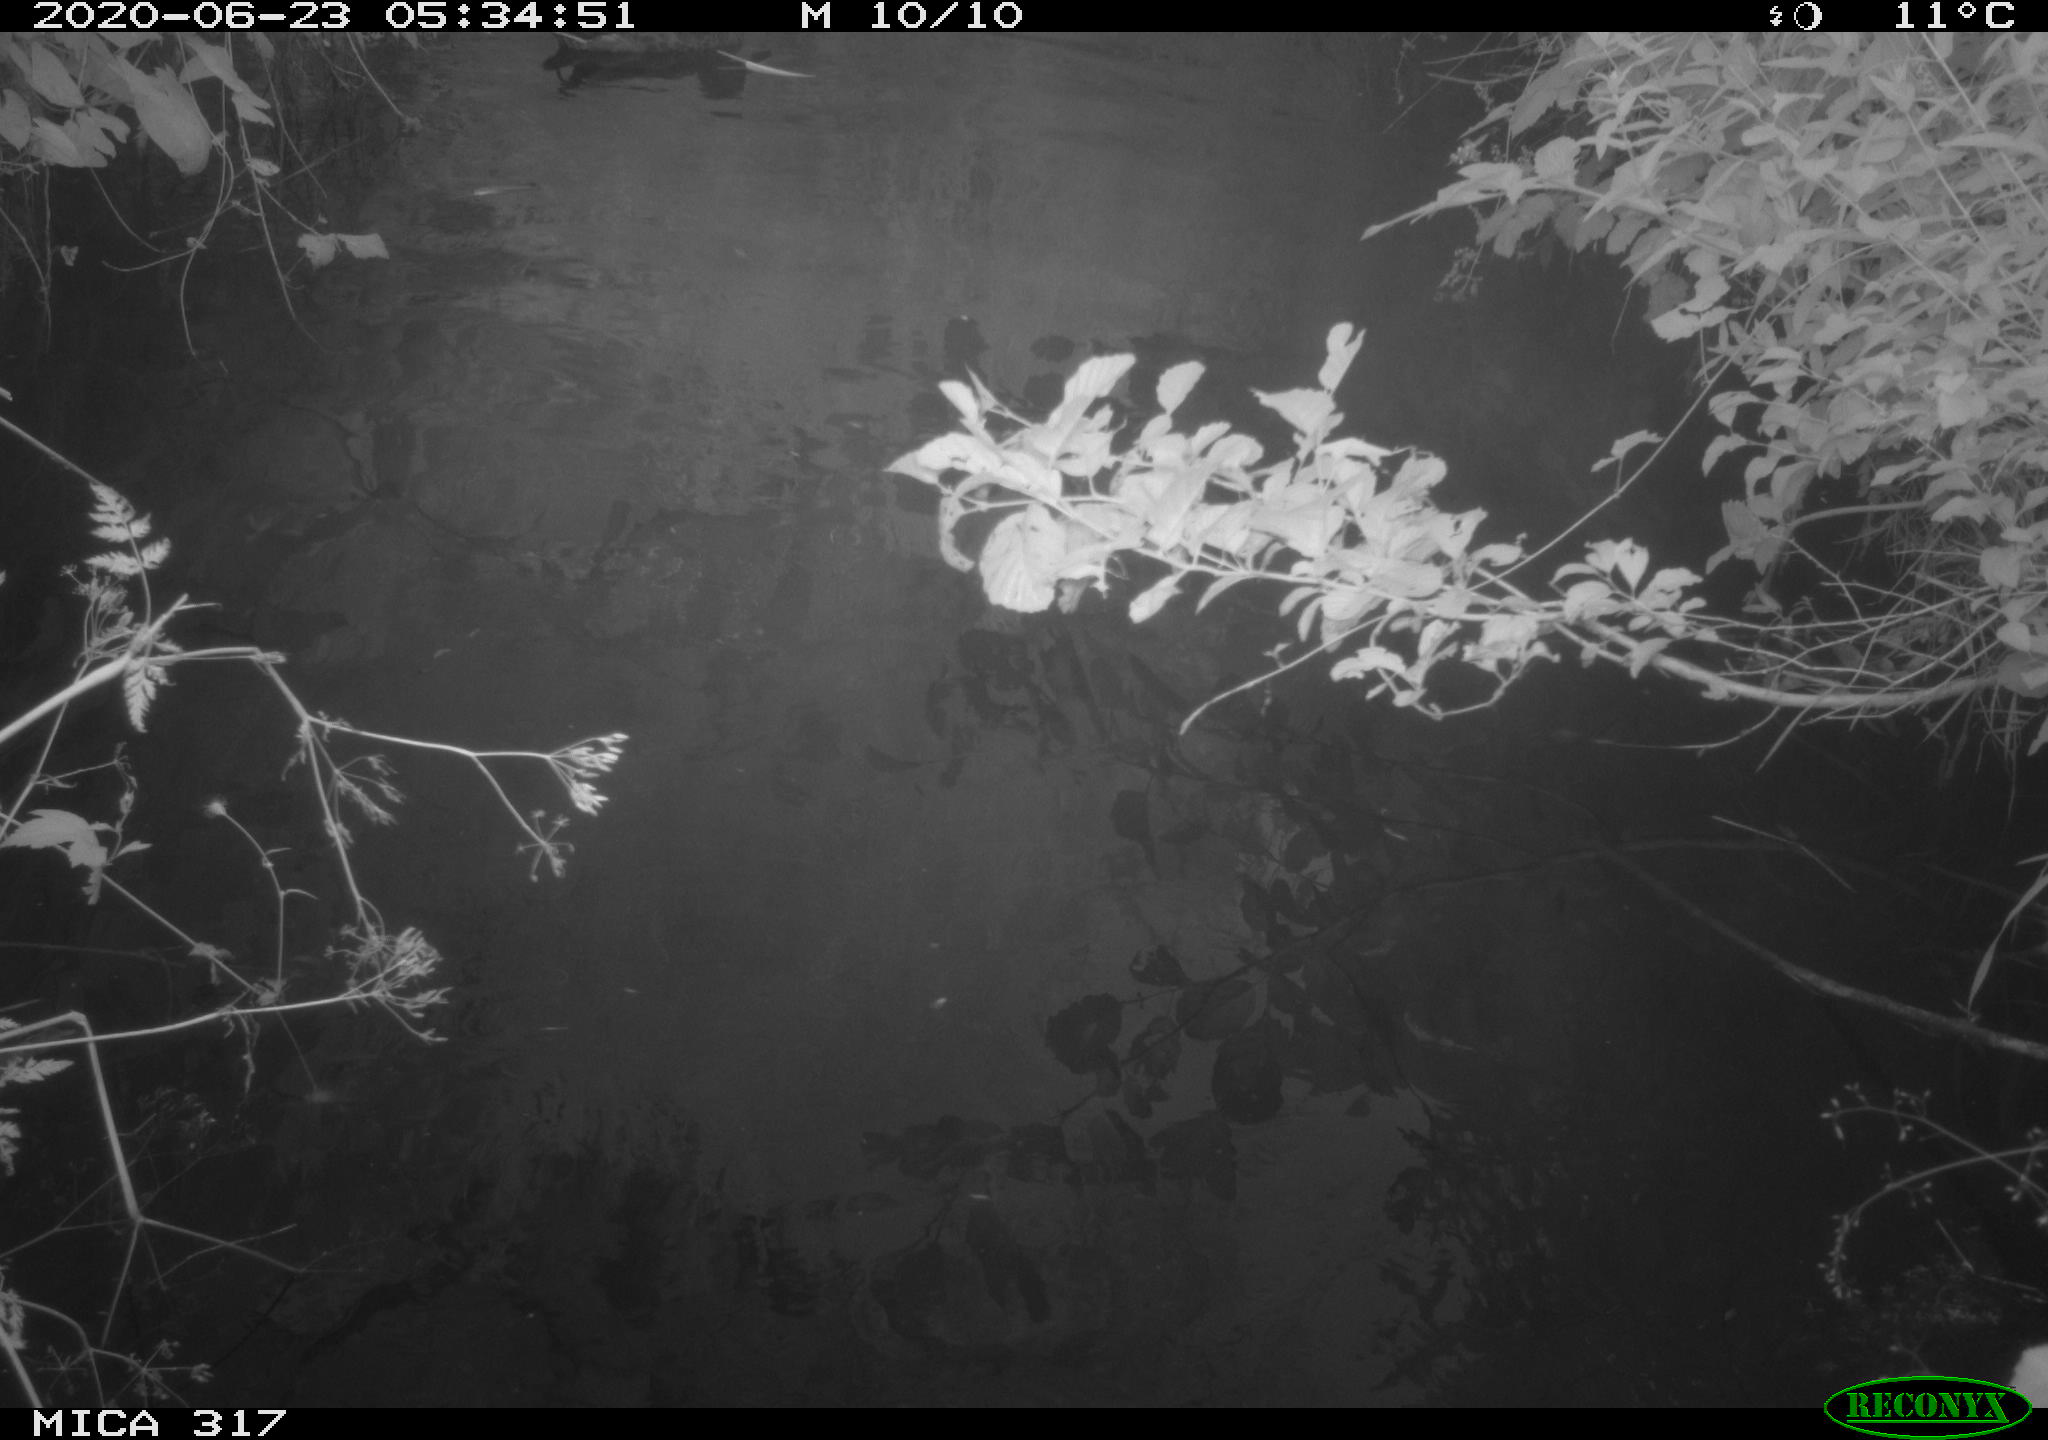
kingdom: Animalia
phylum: Chordata
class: Aves
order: Anseriformes
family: Anatidae
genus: Anas
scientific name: Anas platyrhynchos
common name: Mallard
